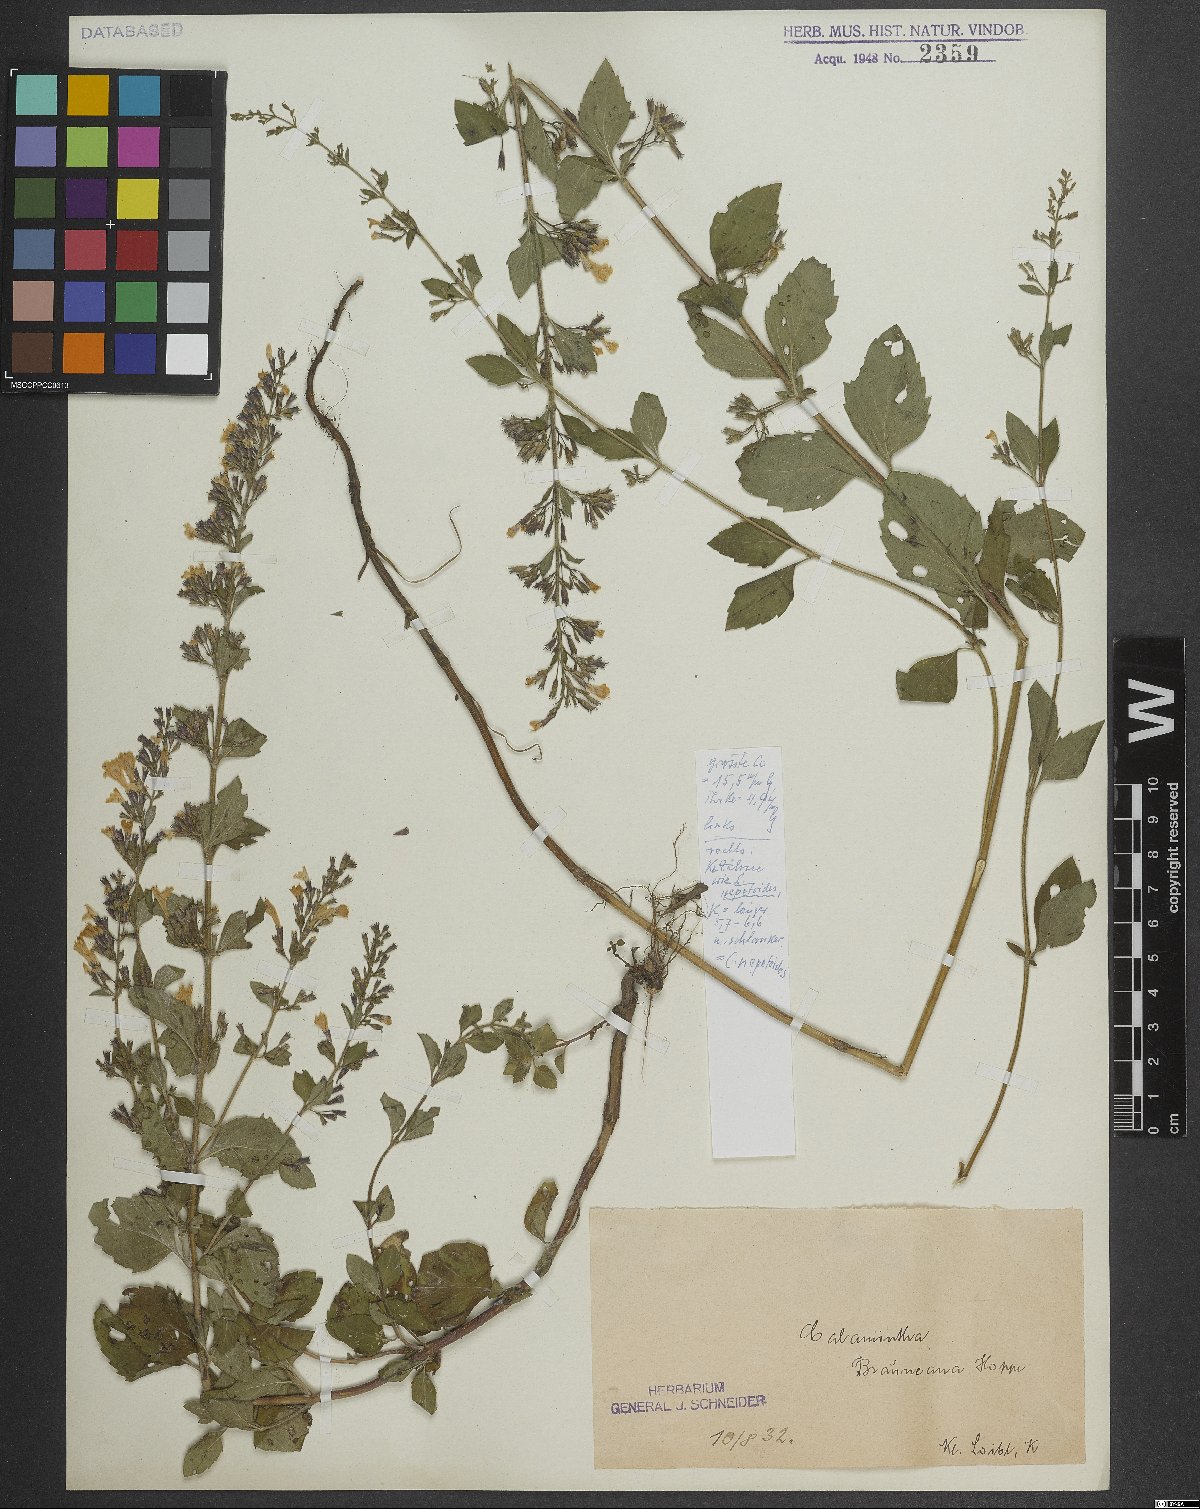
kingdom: Plantae
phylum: Tracheophyta
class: Magnoliopsida
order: Lamiales
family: Lamiaceae
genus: Clinopodium
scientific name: Clinopodium nepeta
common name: Lesser calamint
